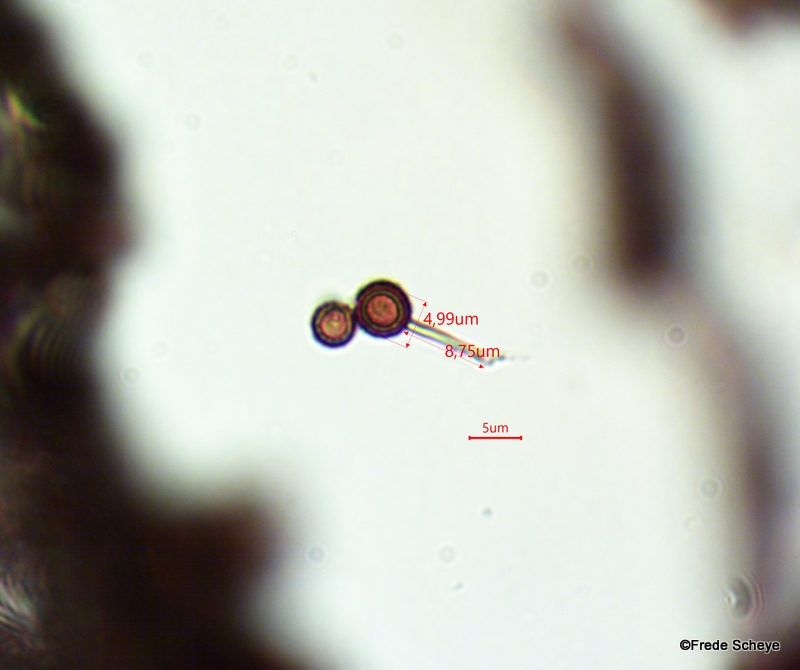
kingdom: Fungi
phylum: Basidiomycota
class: Agaricomycetes
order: Agaricales
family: Lycoperdaceae
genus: Bovista
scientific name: Bovista nigrescens
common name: sortagtig bovist
